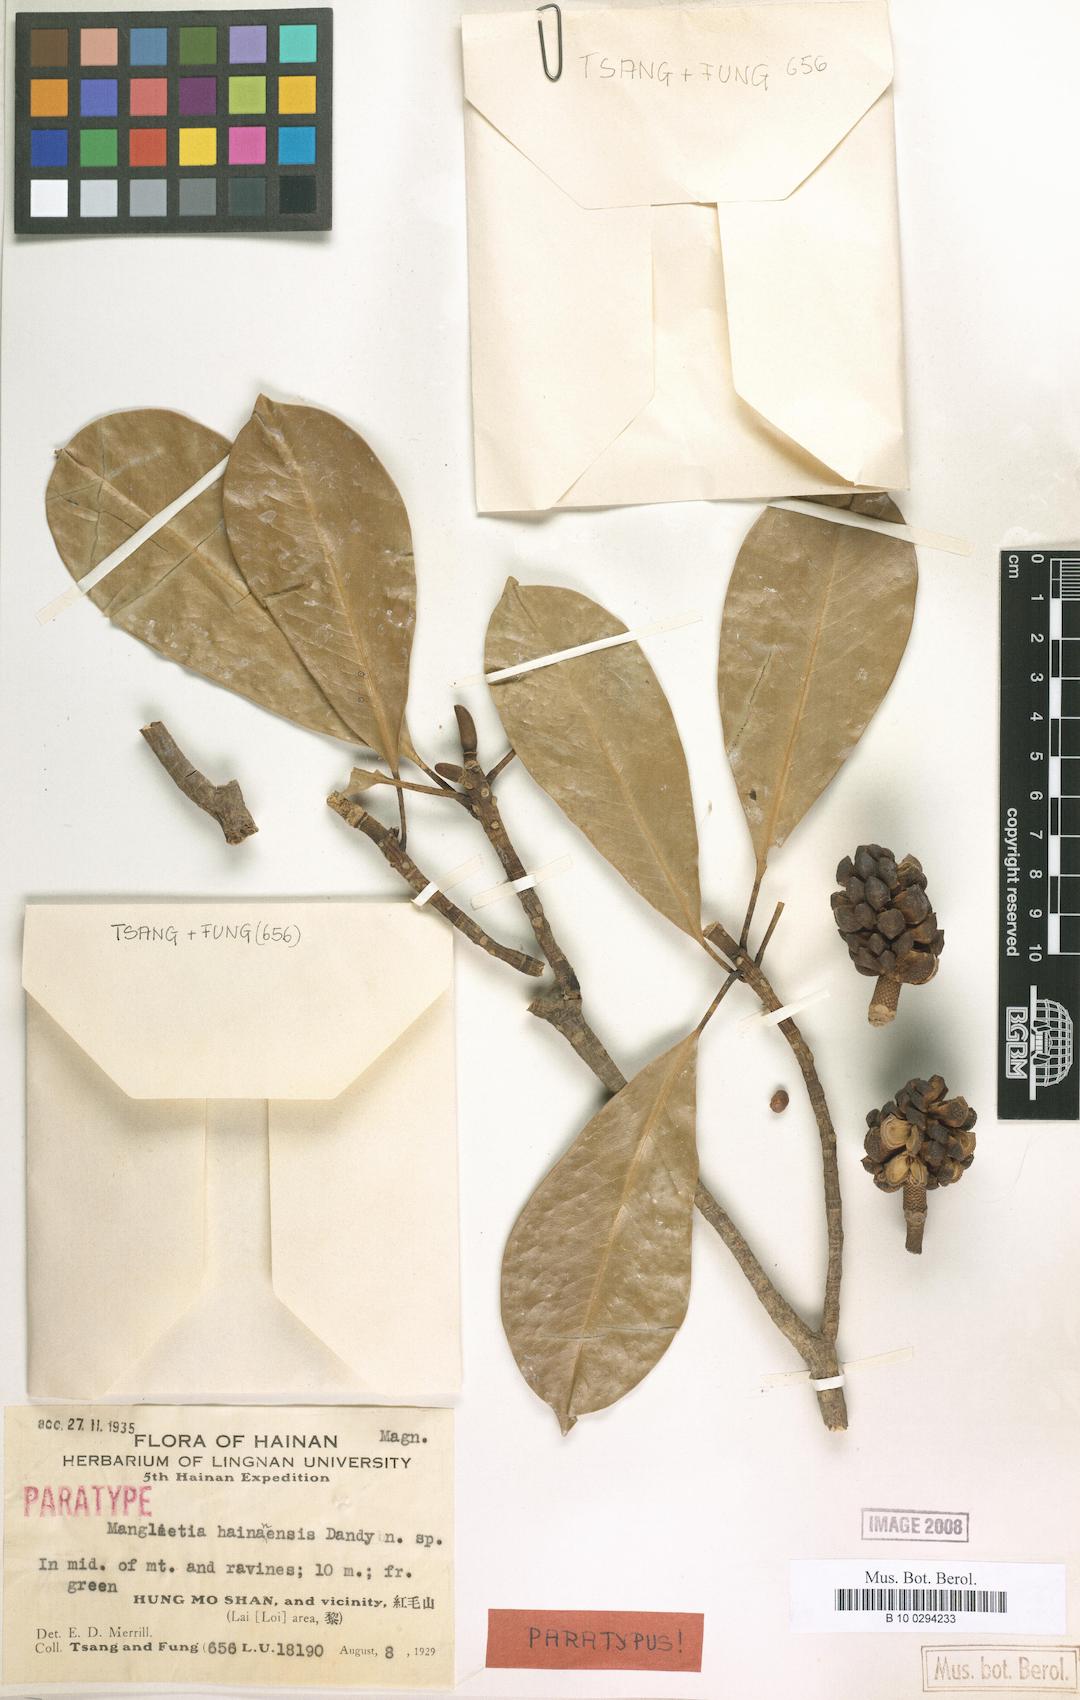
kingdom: Plantae
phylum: Tracheophyta
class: Magnoliopsida
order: Magnoliales
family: Magnoliaceae
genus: Magnolia
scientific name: Magnolia fordiana
